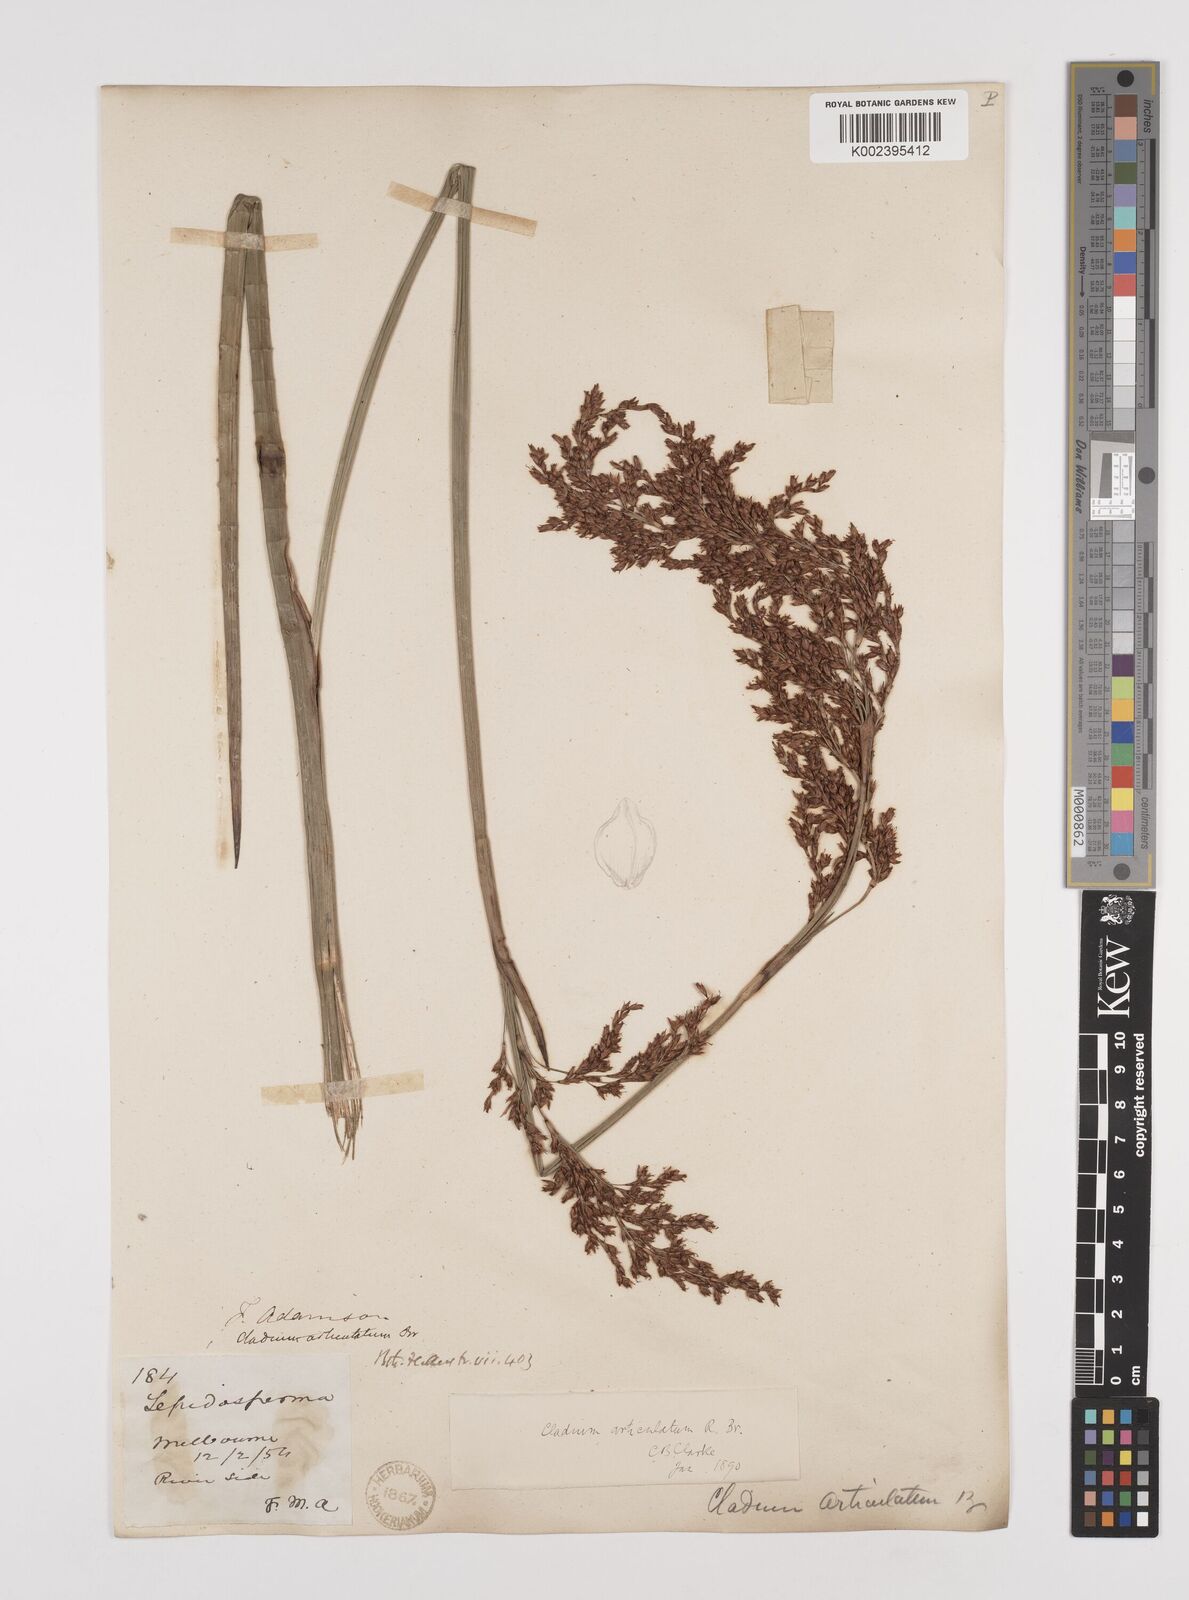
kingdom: Plantae
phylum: Tracheophyta
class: Liliopsida
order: Poales
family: Cyperaceae
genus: Machaerina
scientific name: Machaerina articulata
